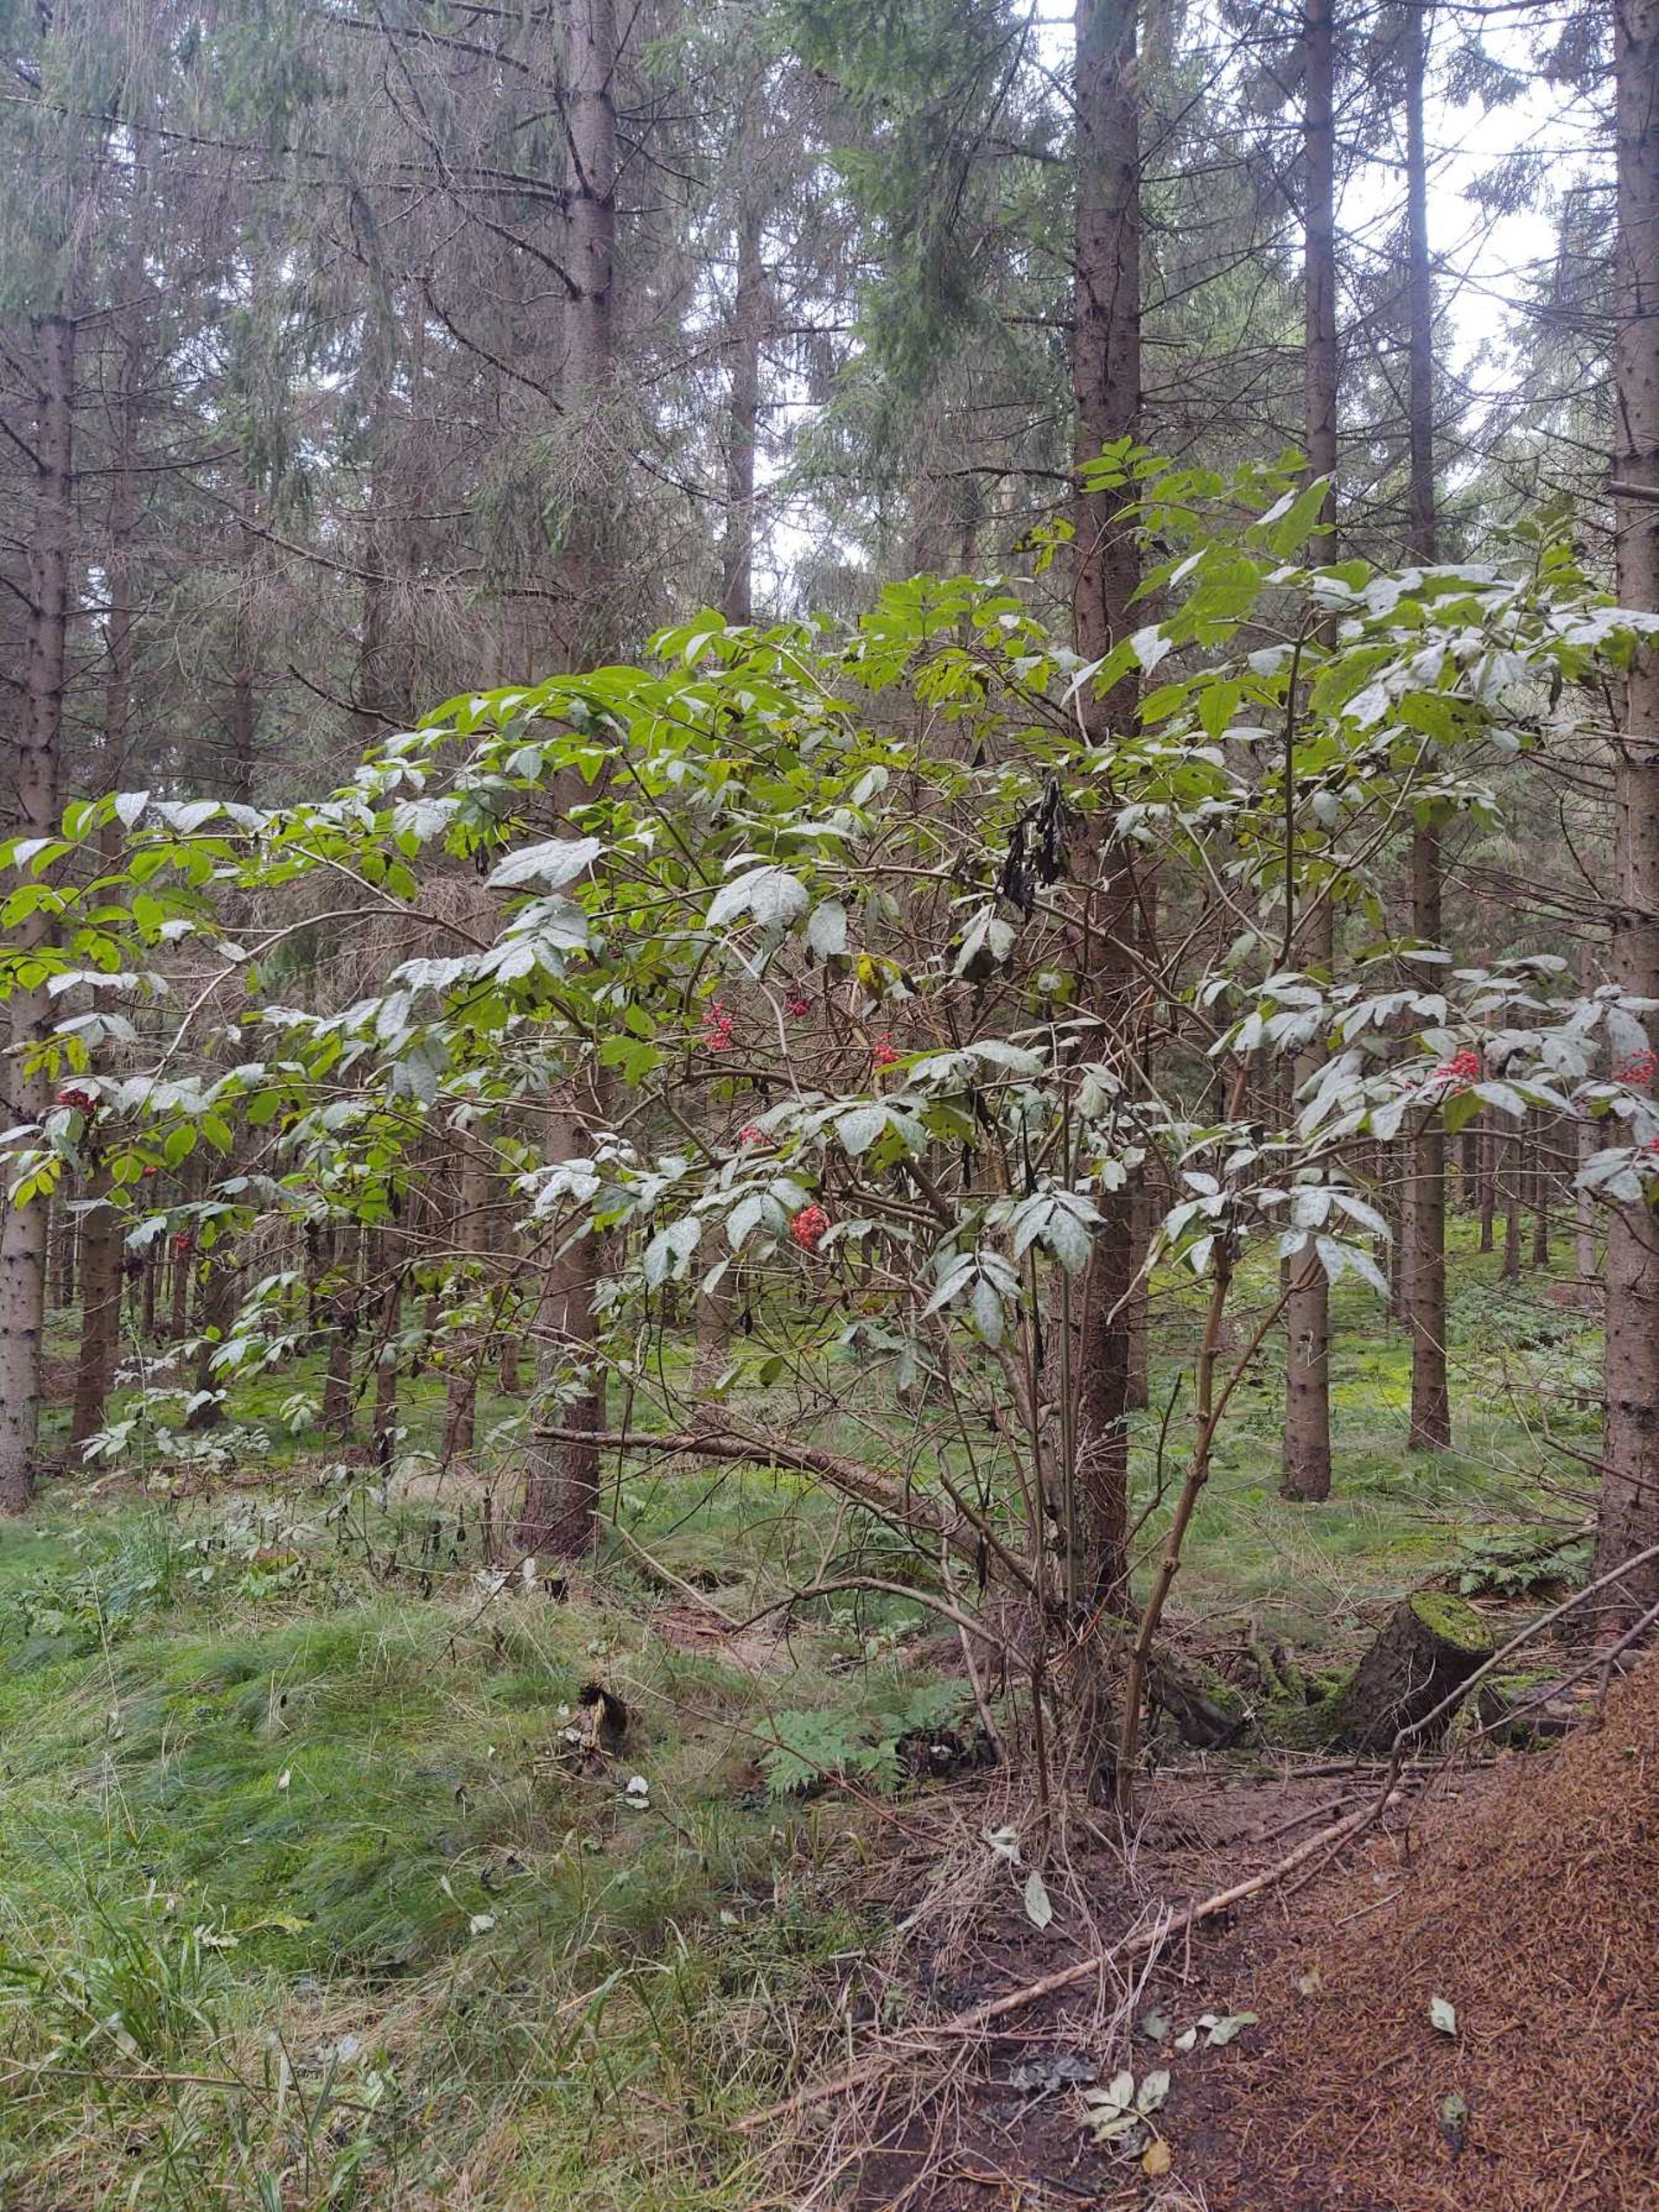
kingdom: Plantae
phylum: Tracheophyta
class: Magnoliopsida
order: Dipsacales
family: Viburnaceae
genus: Sambucus
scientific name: Sambucus racemosa
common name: Drue-hyld
